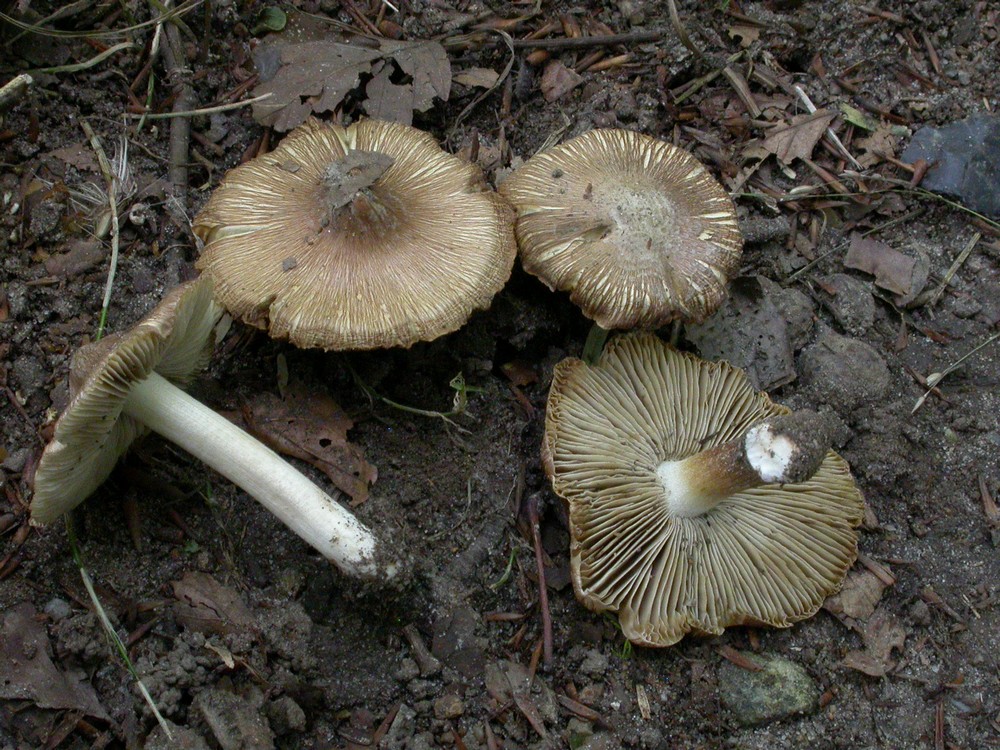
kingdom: Fungi
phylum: Basidiomycota
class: Agaricomycetes
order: Agaricales
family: Inocybaceae
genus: Inosperma
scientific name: Inosperma
